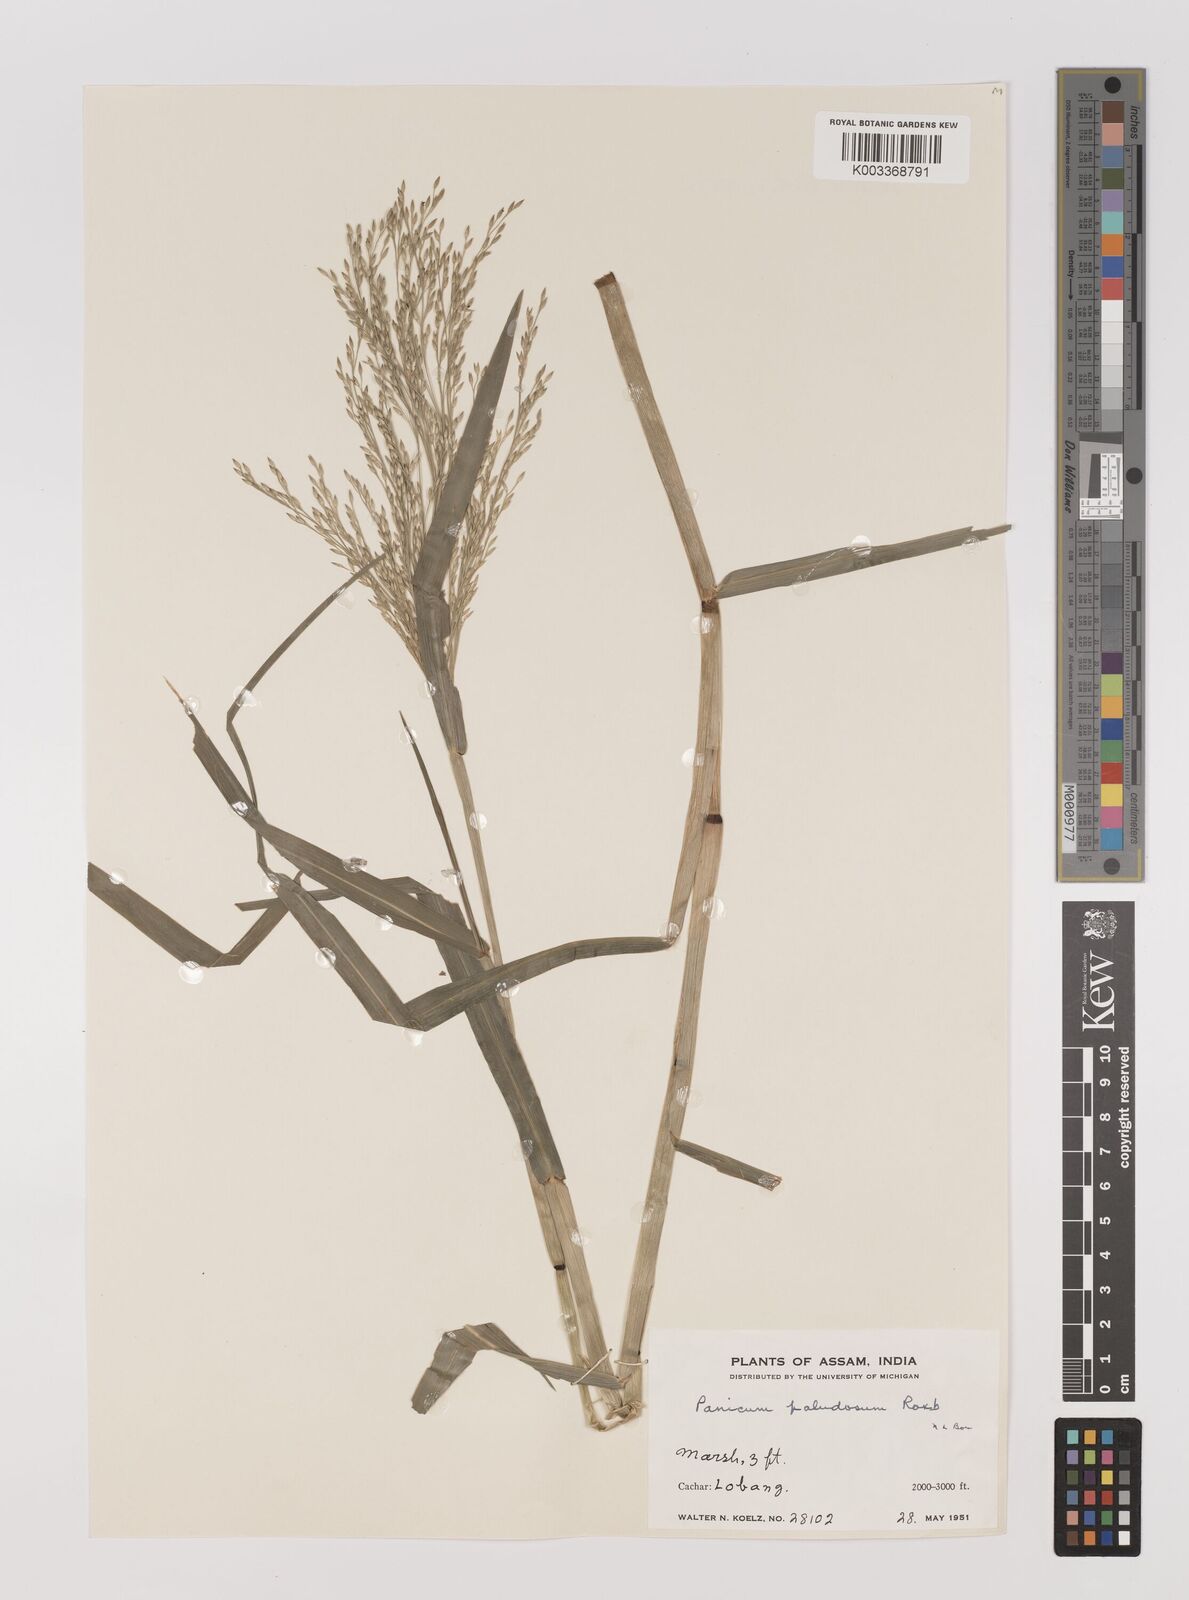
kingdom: Plantae
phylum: Tracheophyta
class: Liliopsida
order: Poales
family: Poaceae
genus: Louisiella
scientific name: Louisiella paludosa
